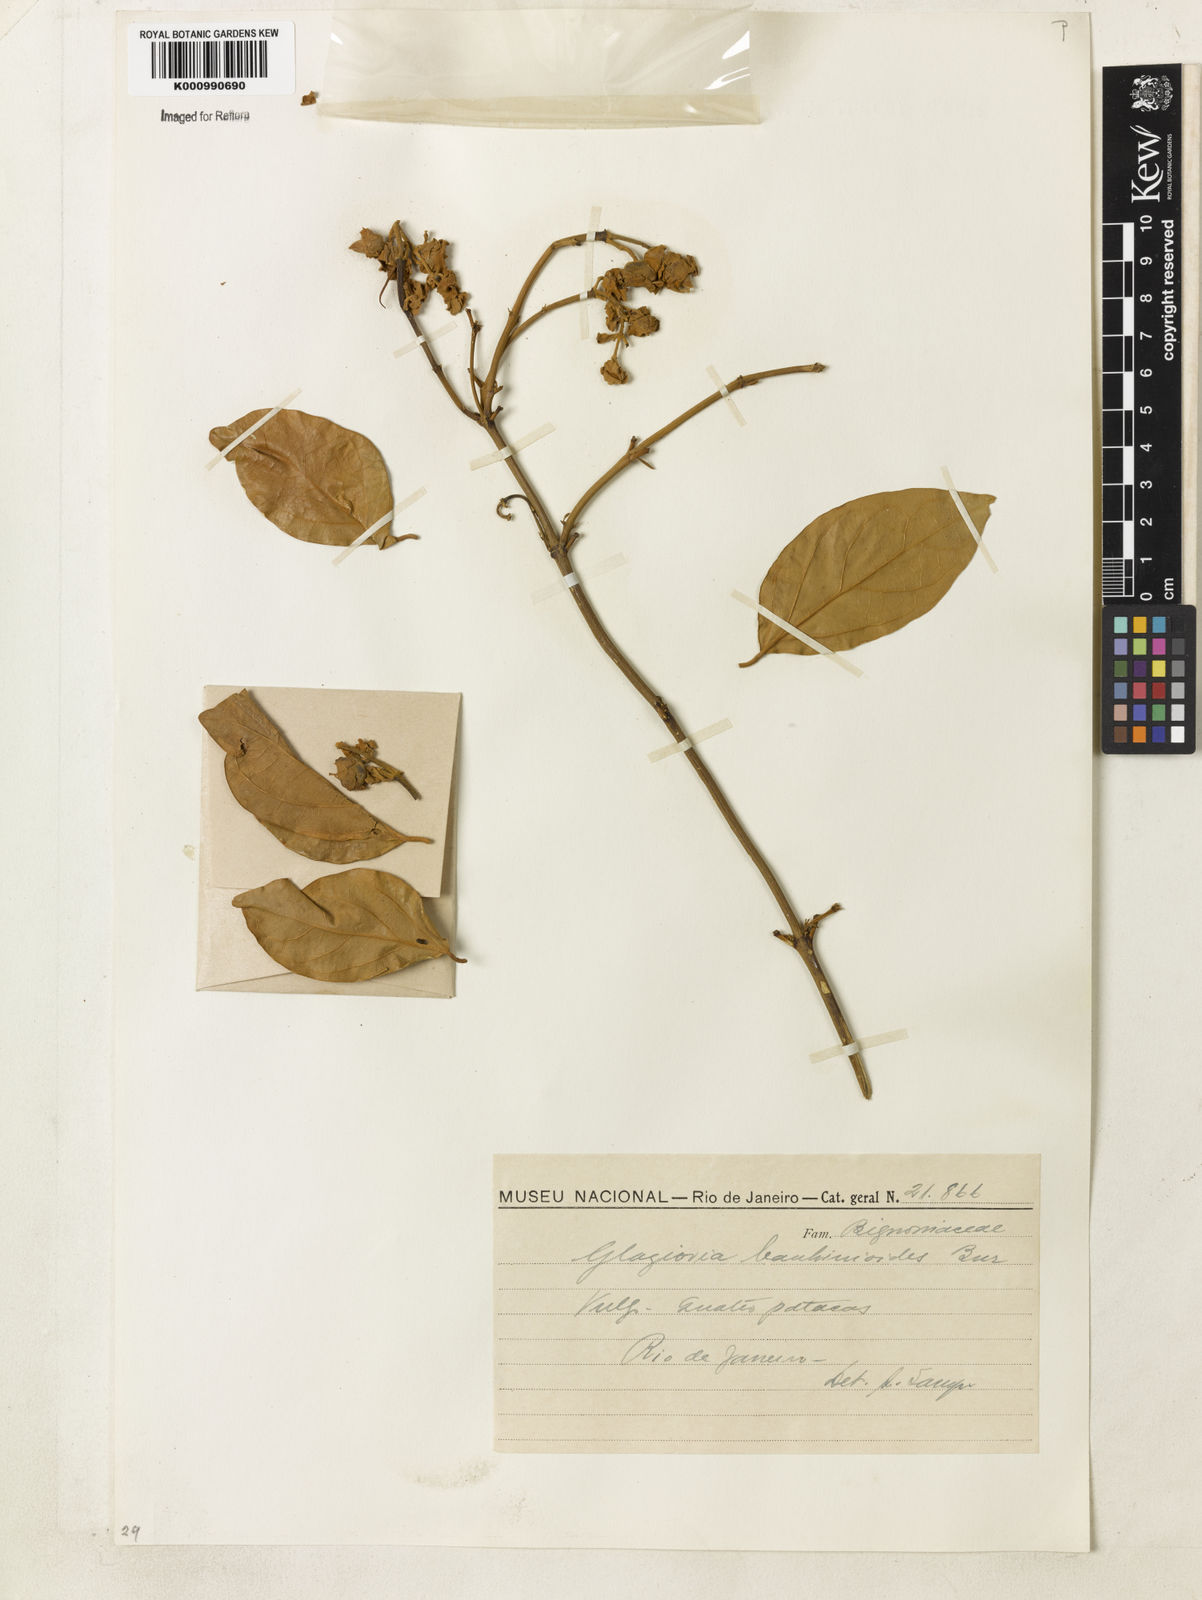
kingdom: Plantae
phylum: Tracheophyta
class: Magnoliopsida
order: Lamiales
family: Bignoniaceae
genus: Amphilophium
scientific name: Amphilophium bauhinioides
